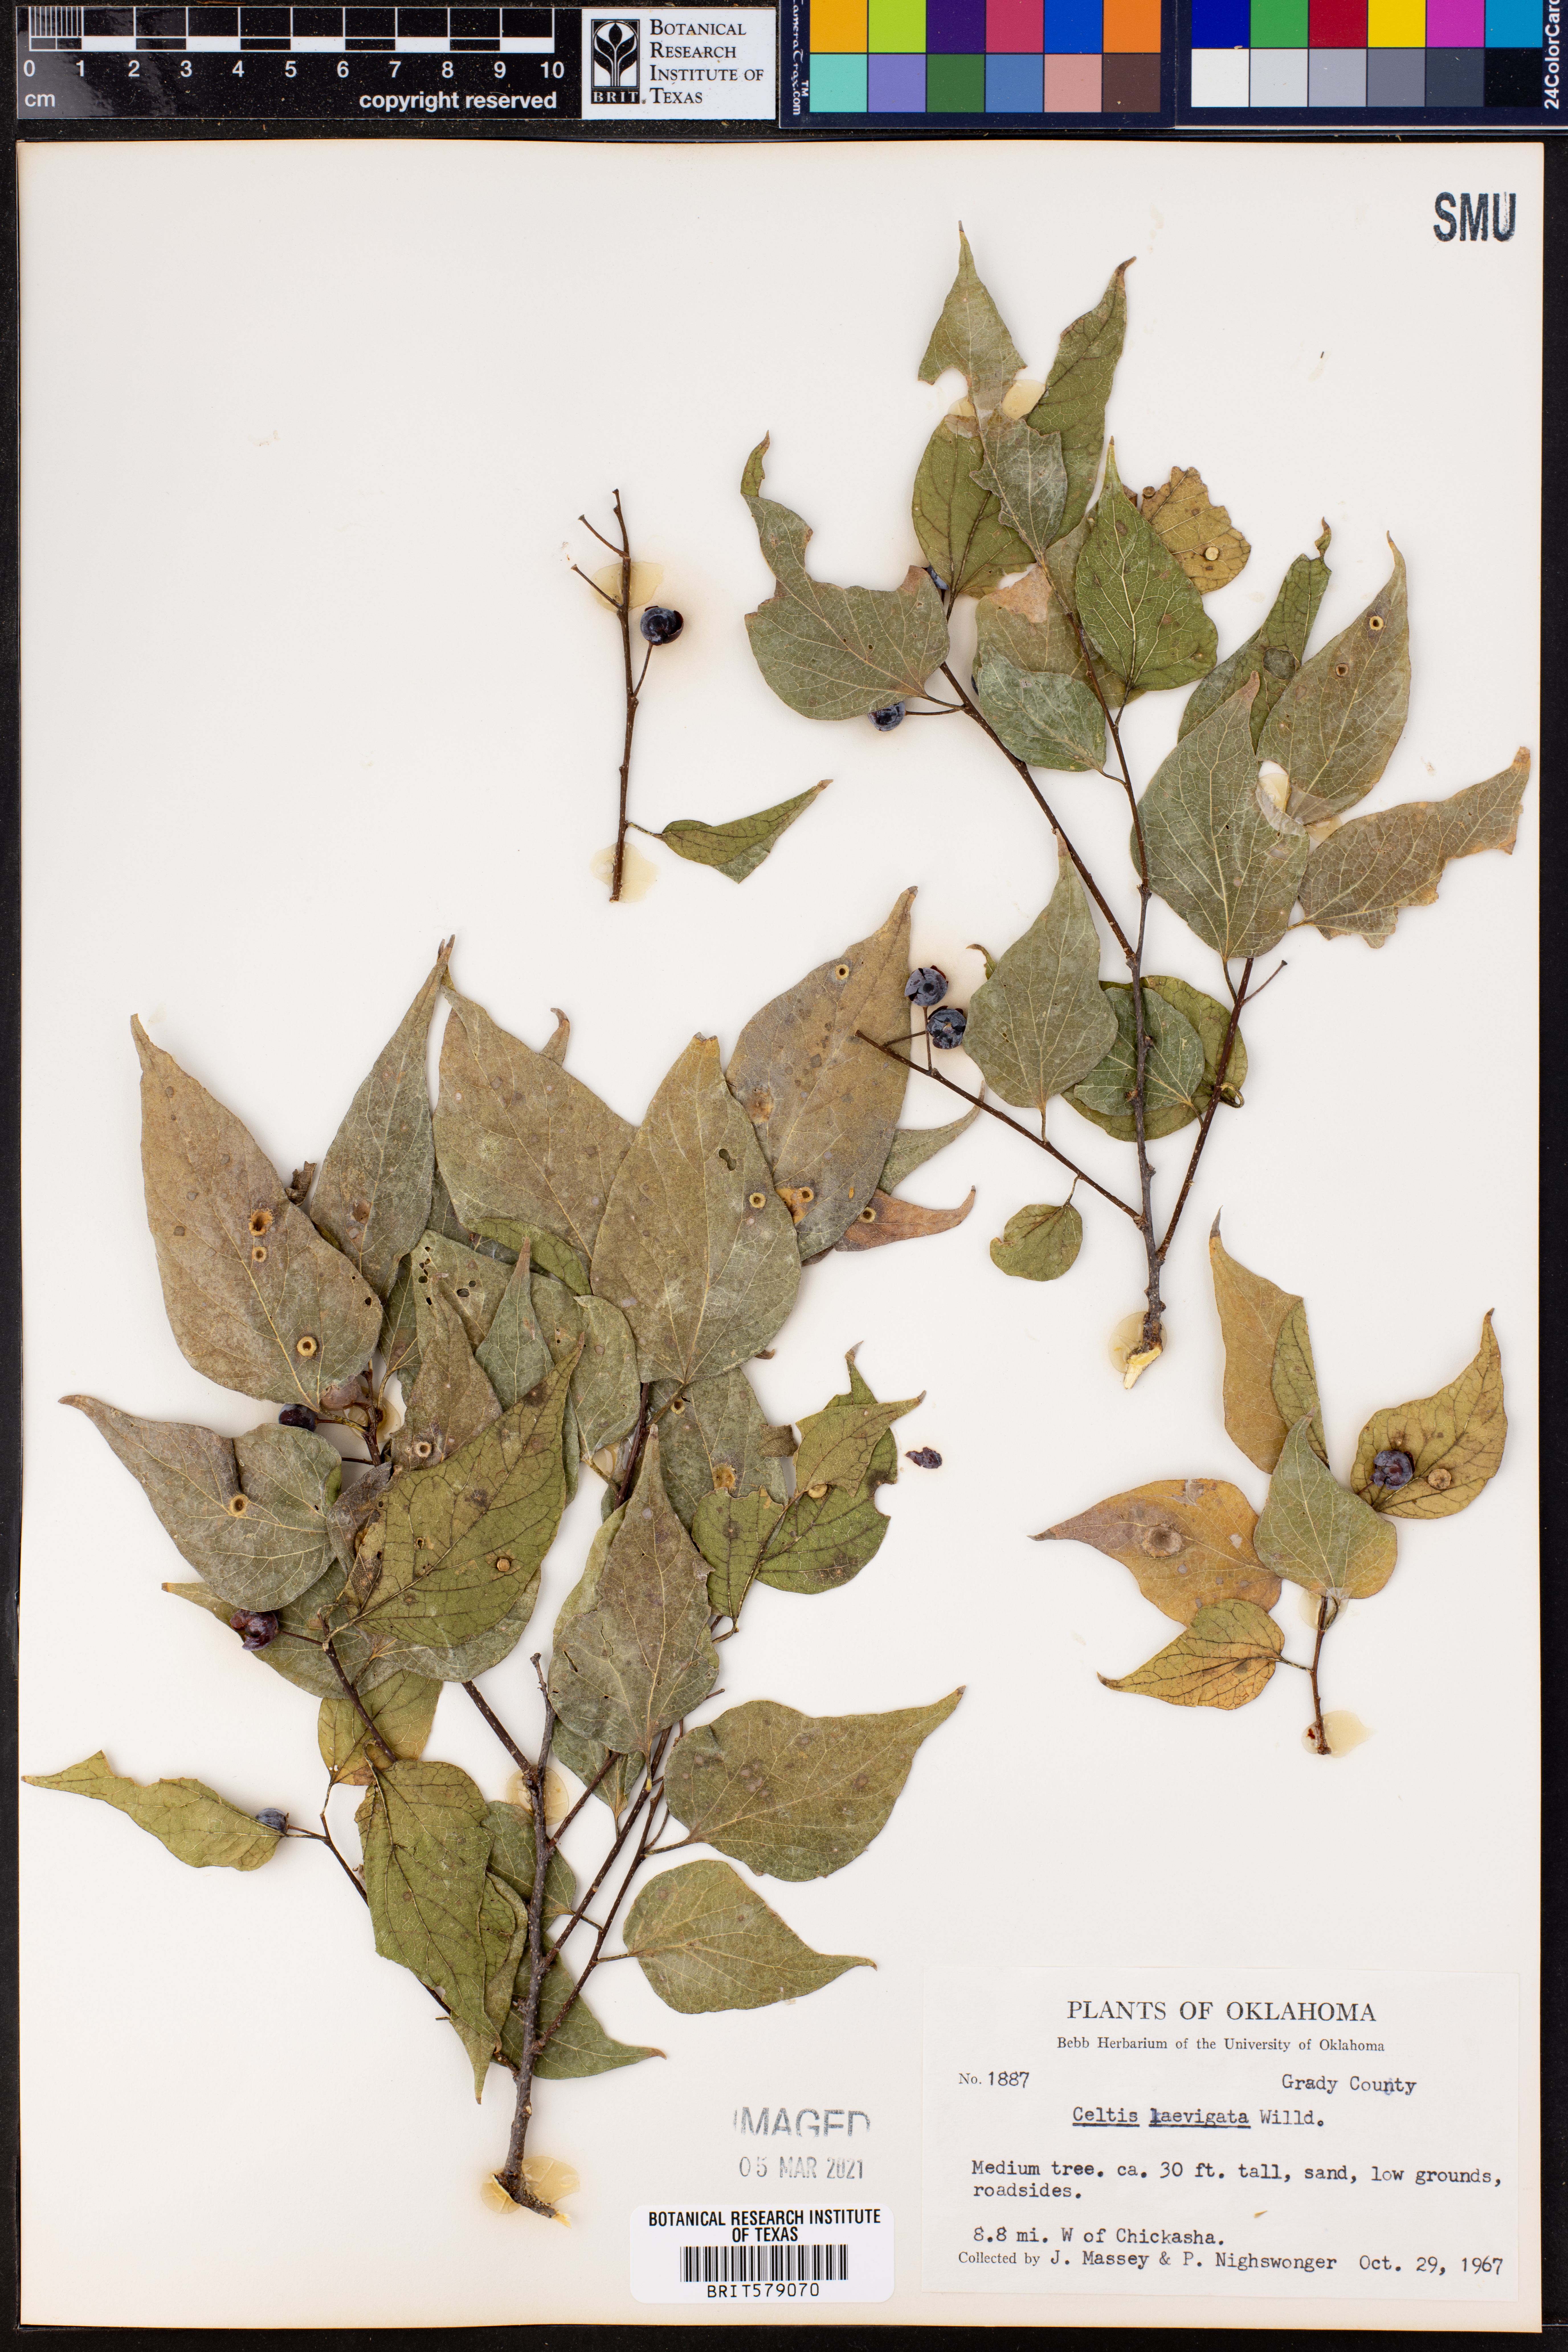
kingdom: Plantae
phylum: Tracheophyta
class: Magnoliopsida
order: Rosales
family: Cannabaceae
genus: Celtis
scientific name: Celtis laevigata
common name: Sugarberry
